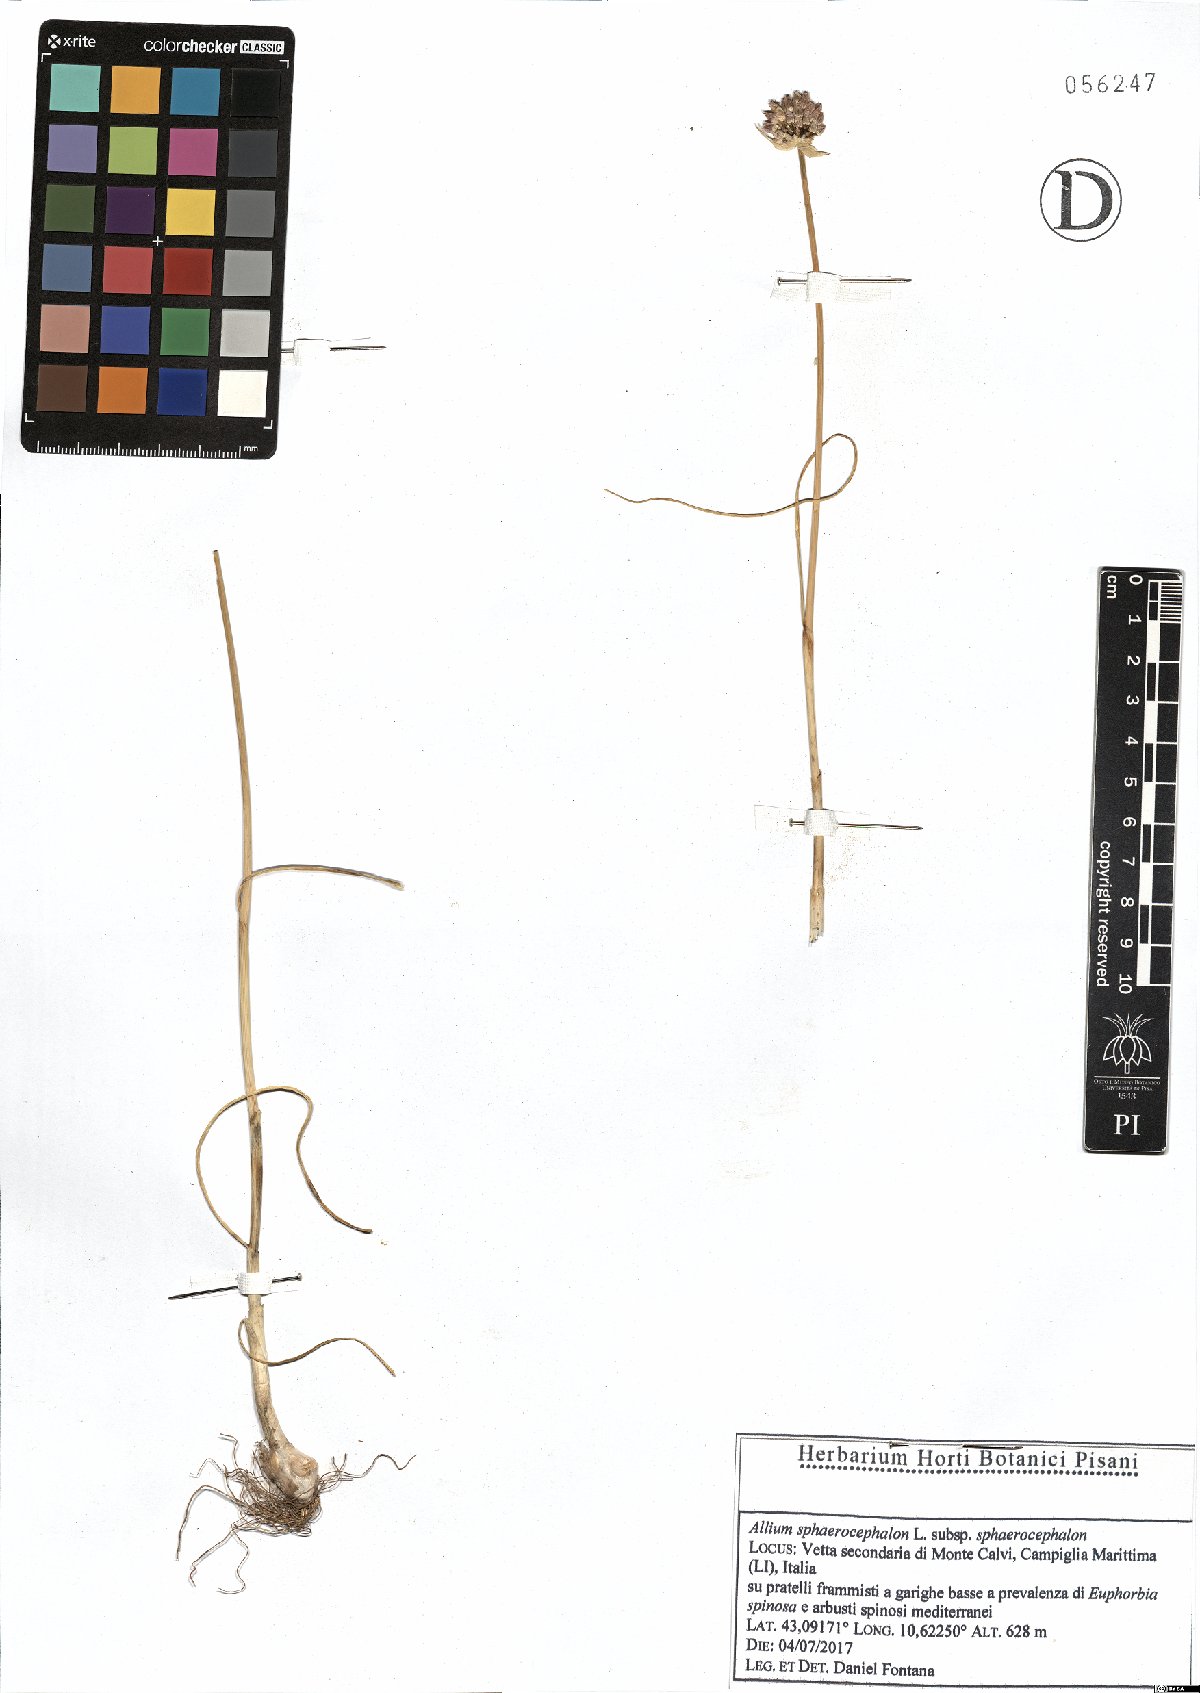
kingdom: Plantae
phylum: Tracheophyta
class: Liliopsida
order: Asparagales
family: Amaryllidaceae
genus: Allium
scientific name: Allium sphaerocephalon
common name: Round-headed leek
